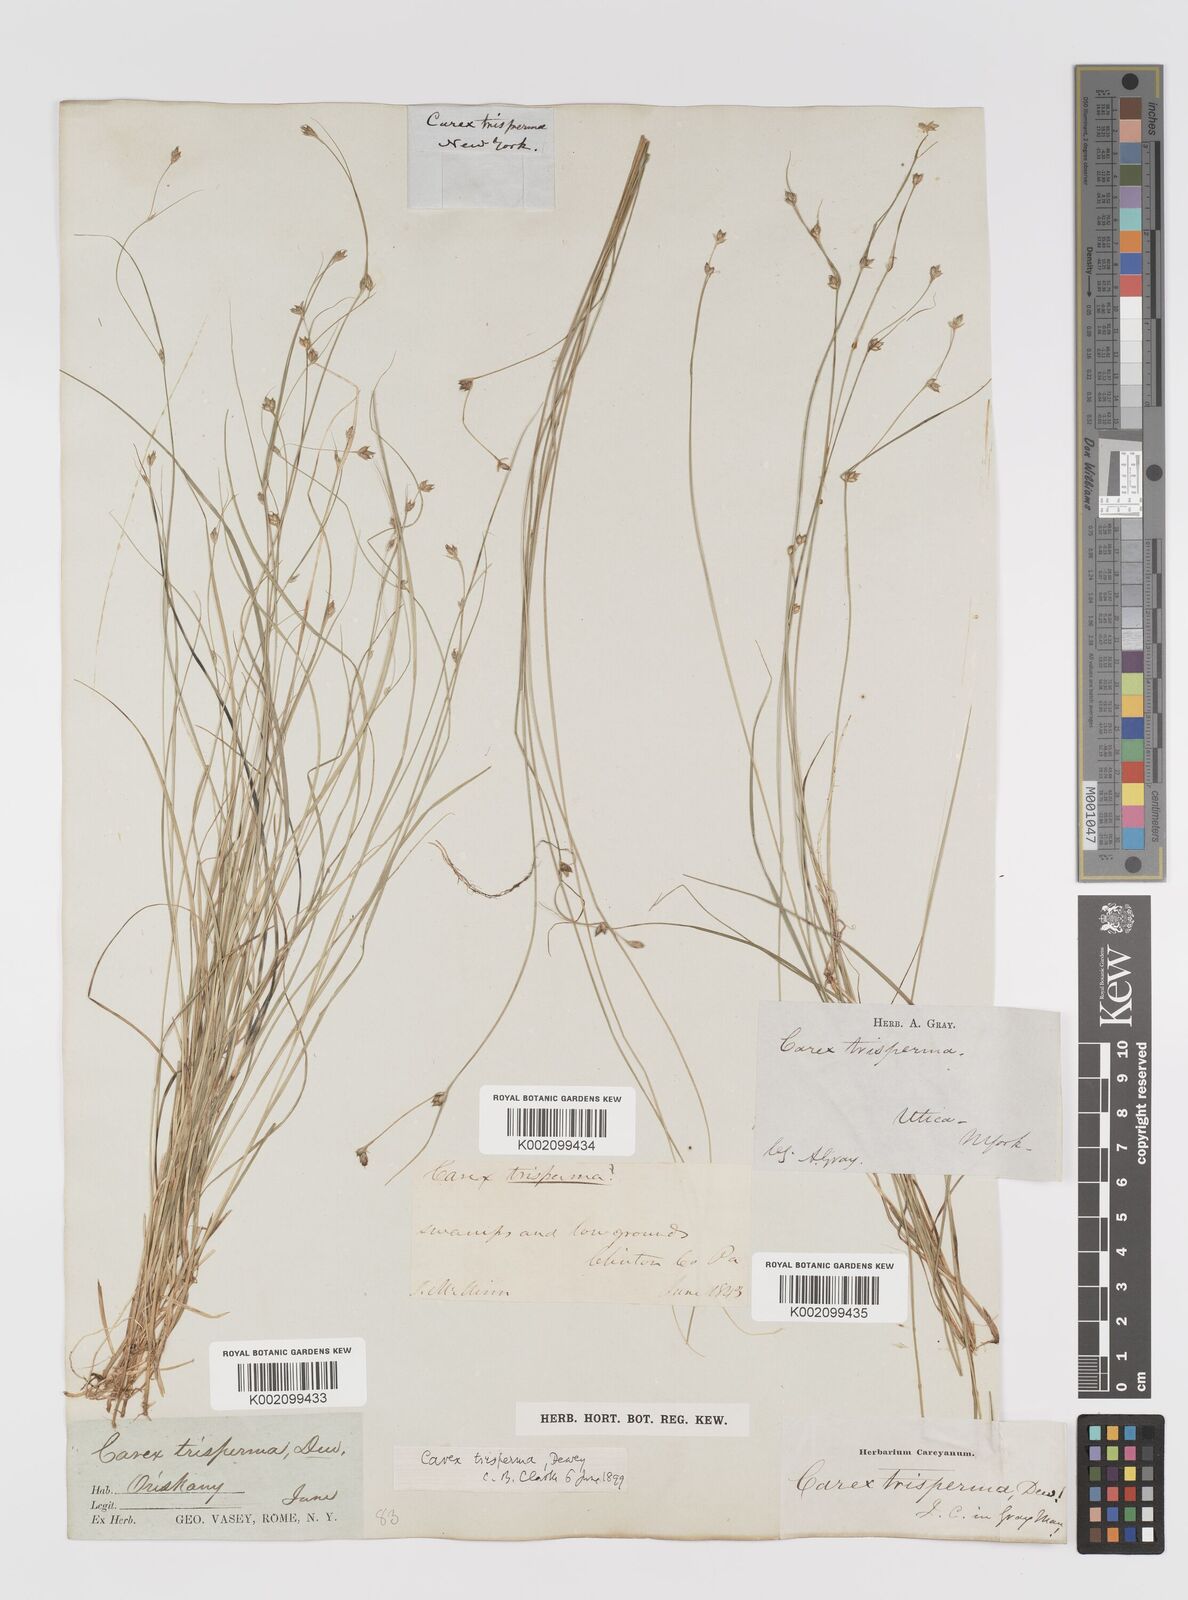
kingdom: Plantae
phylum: Tracheophyta
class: Liliopsida
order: Poales
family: Cyperaceae
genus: Carex
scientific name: Carex trisperma
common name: Three-seeded sedge
